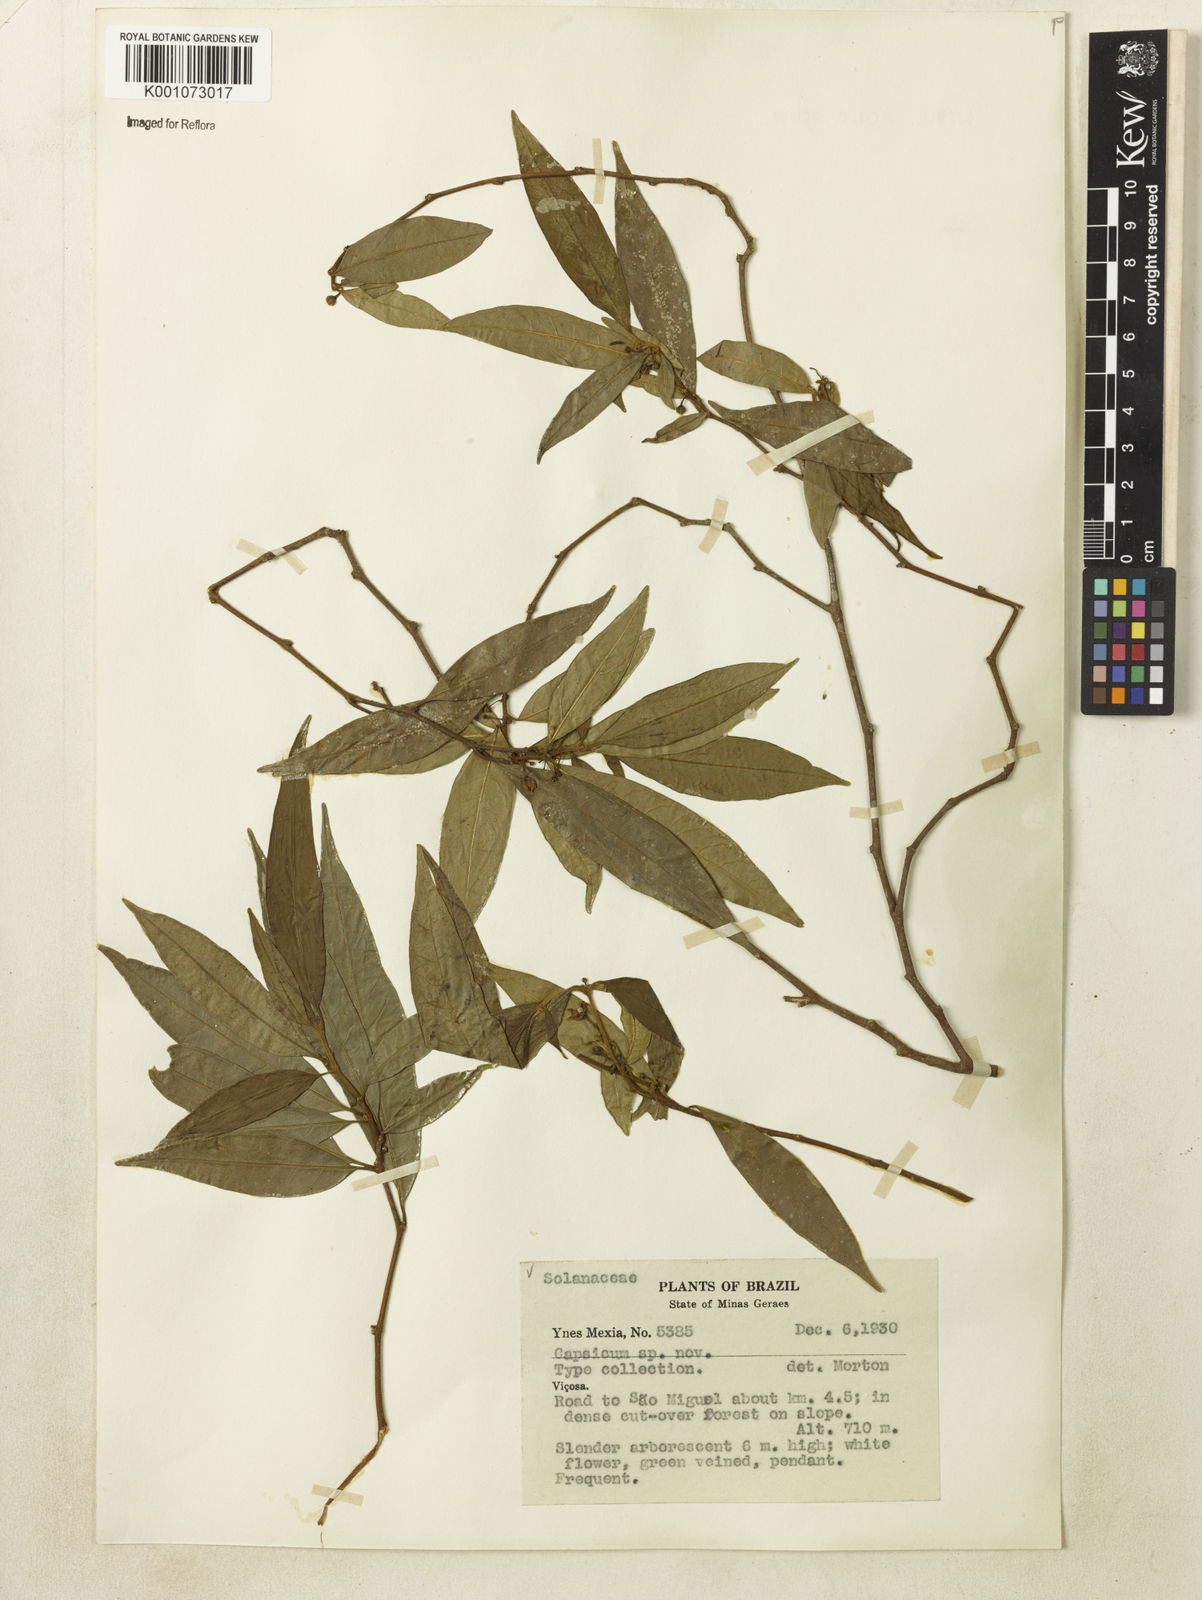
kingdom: Plantae
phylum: Tracheophyta
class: Magnoliopsida
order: Solanales
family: Solanaceae
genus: Athenaea
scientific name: Athenaea fasciculata
